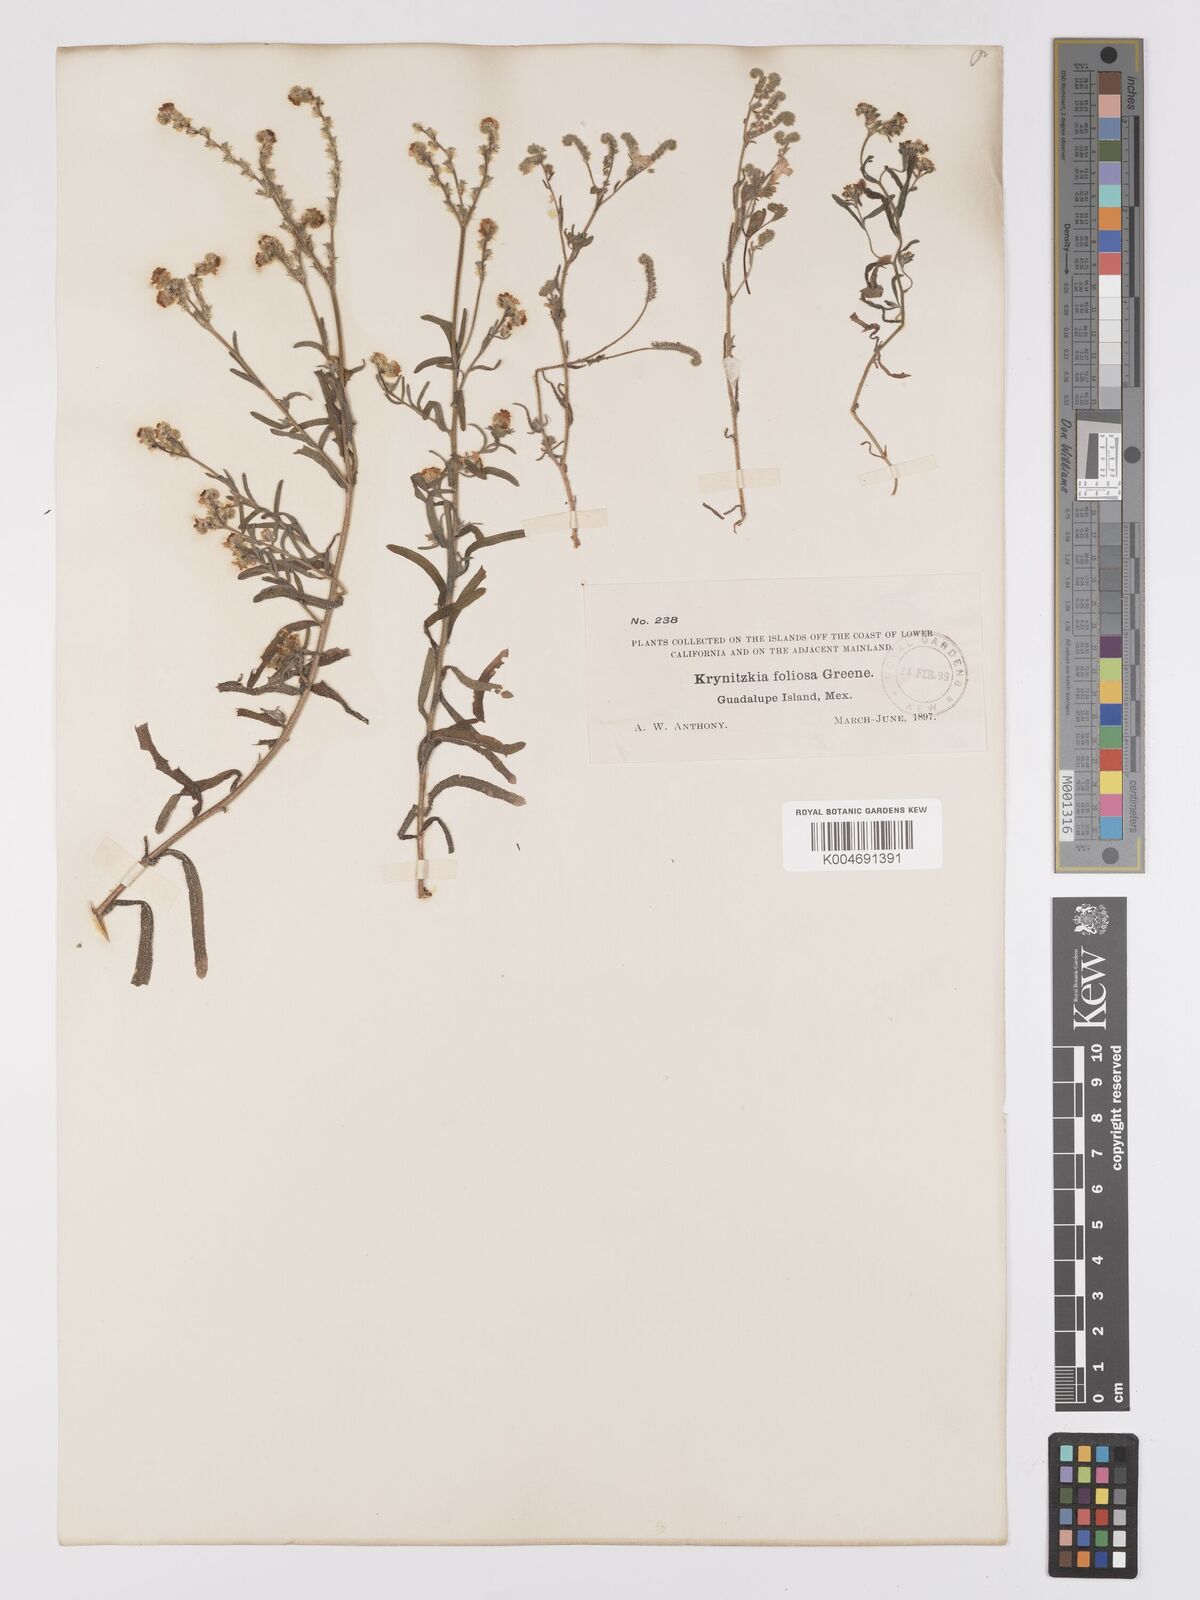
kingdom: Plantae
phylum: Tracheophyta
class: Magnoliopsida
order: Boraginales
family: Boraginaceae
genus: Cryptantha
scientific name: Cryptantha foliosa
